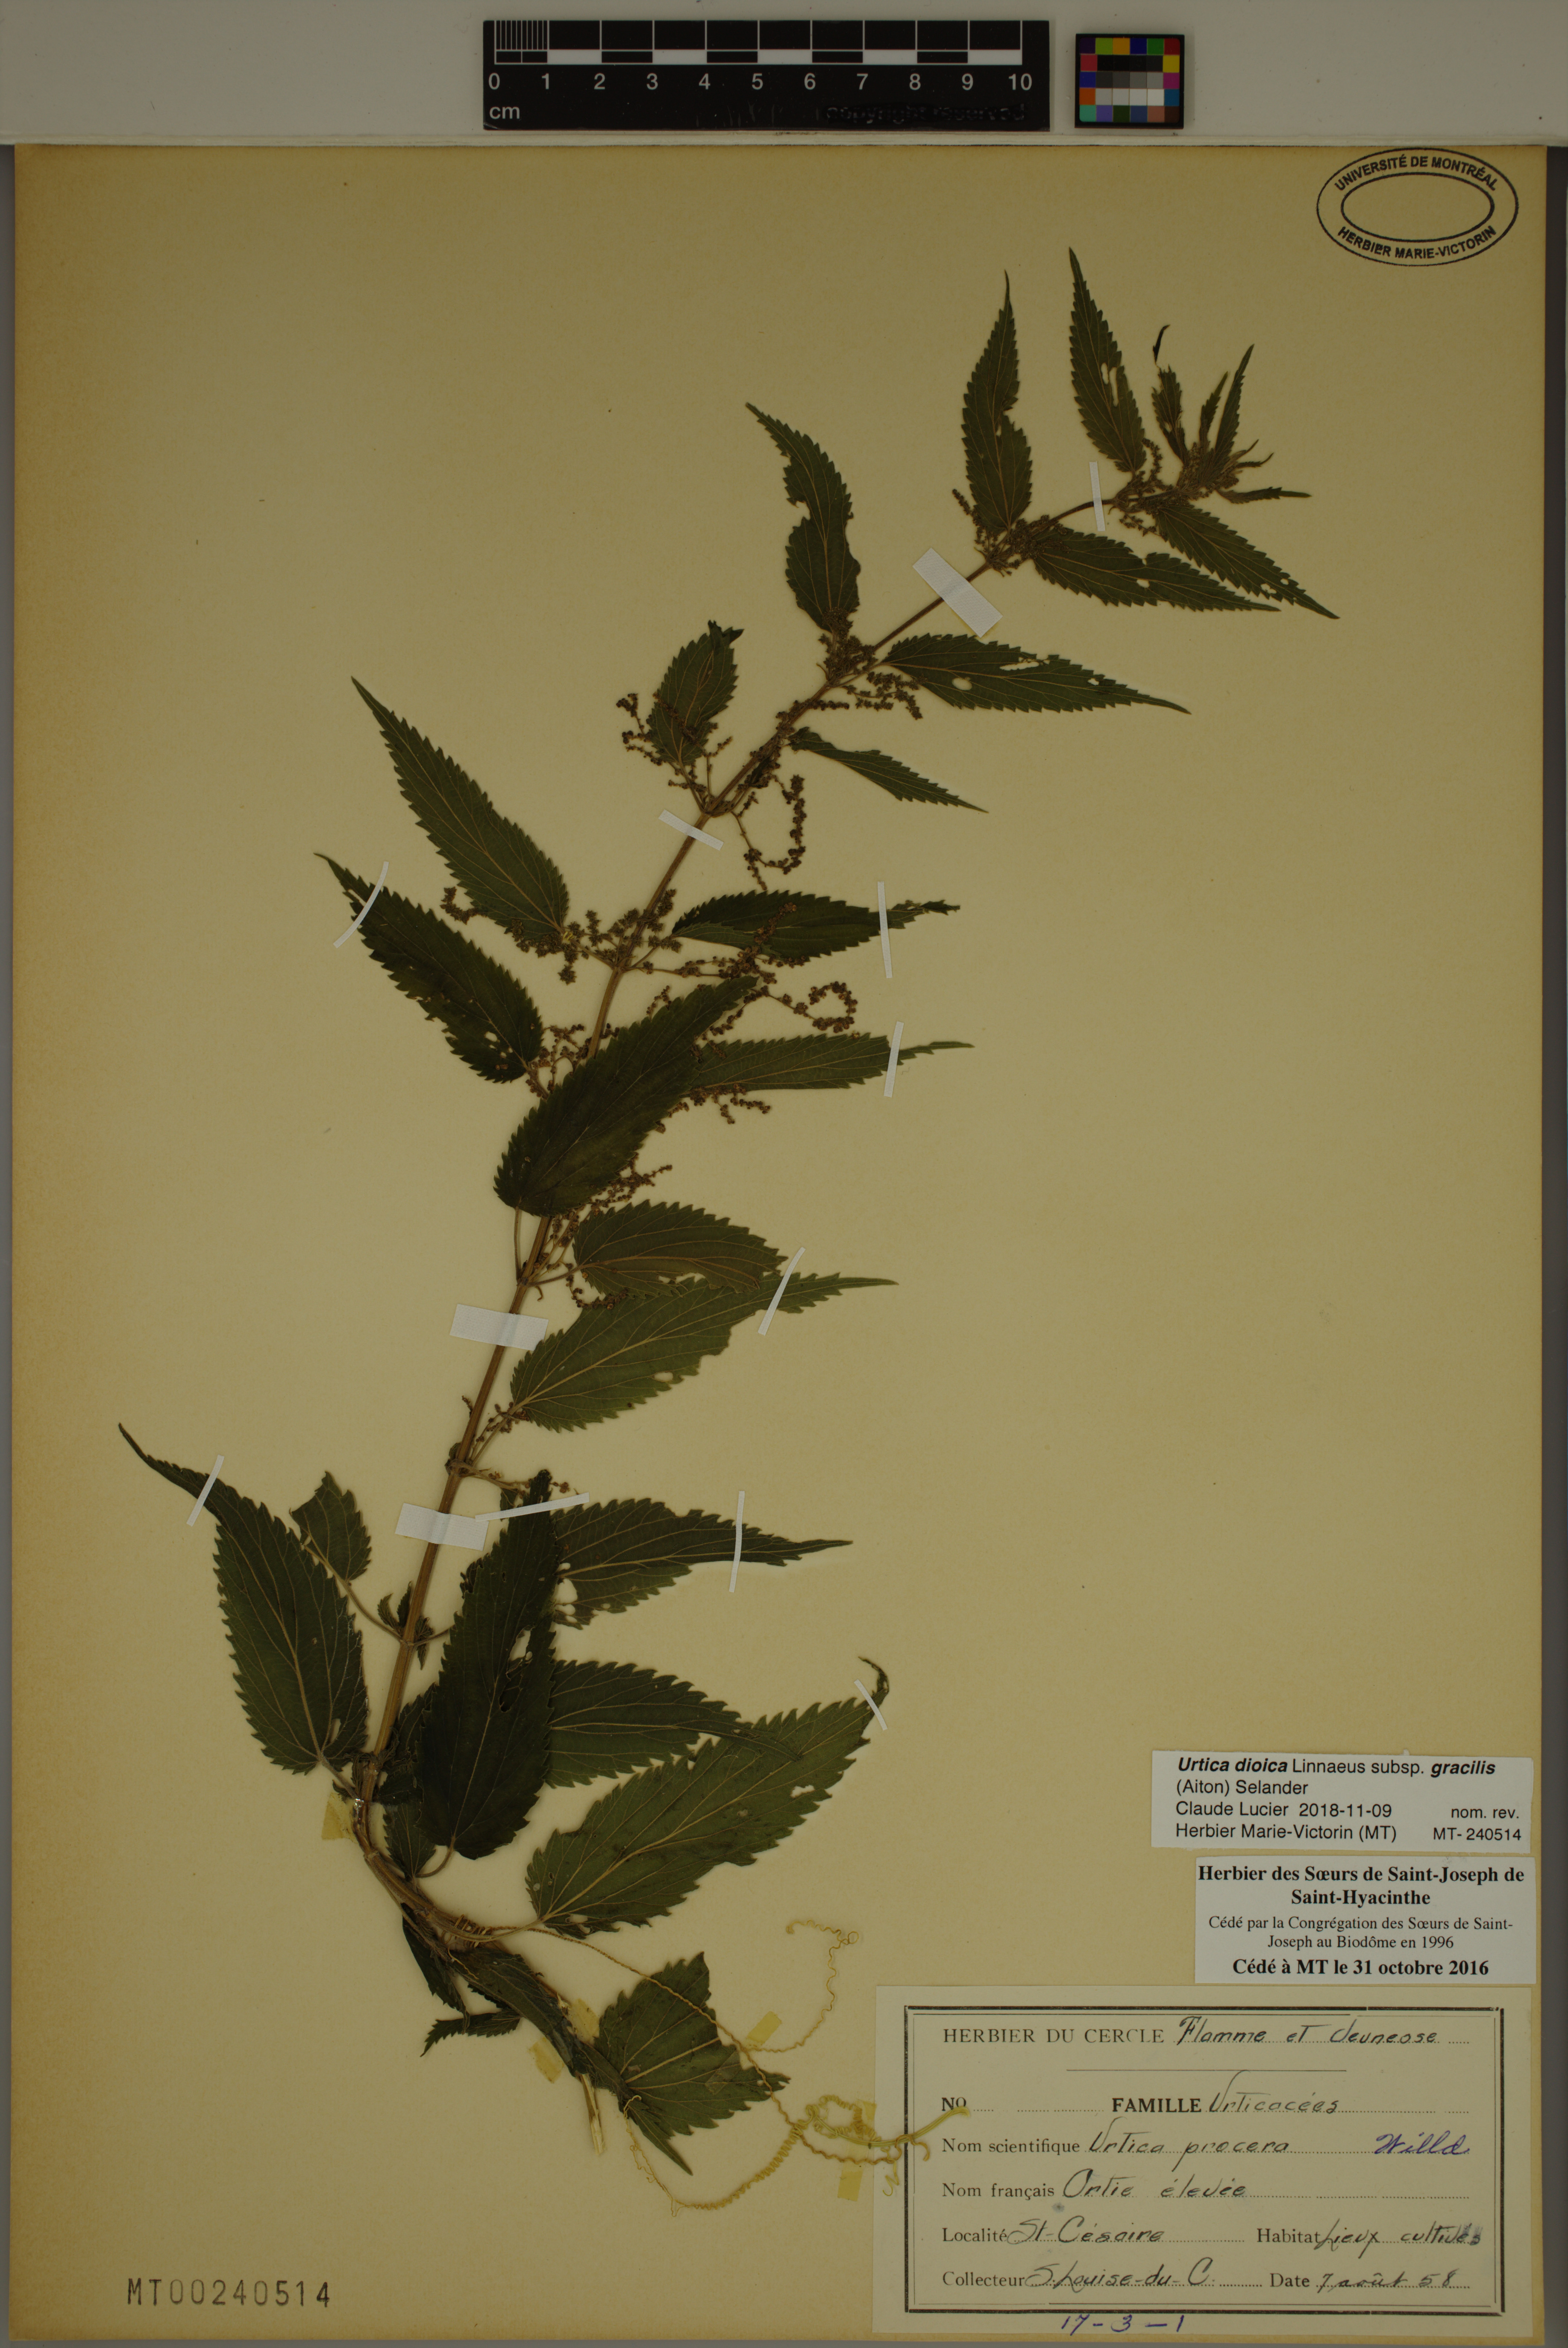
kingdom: Plantae
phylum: Tracheophyta
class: Magnoliopsida
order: Rosales
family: Urticaceae
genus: Urtica
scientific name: Urtica gracilis
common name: Slender stinging nettle
